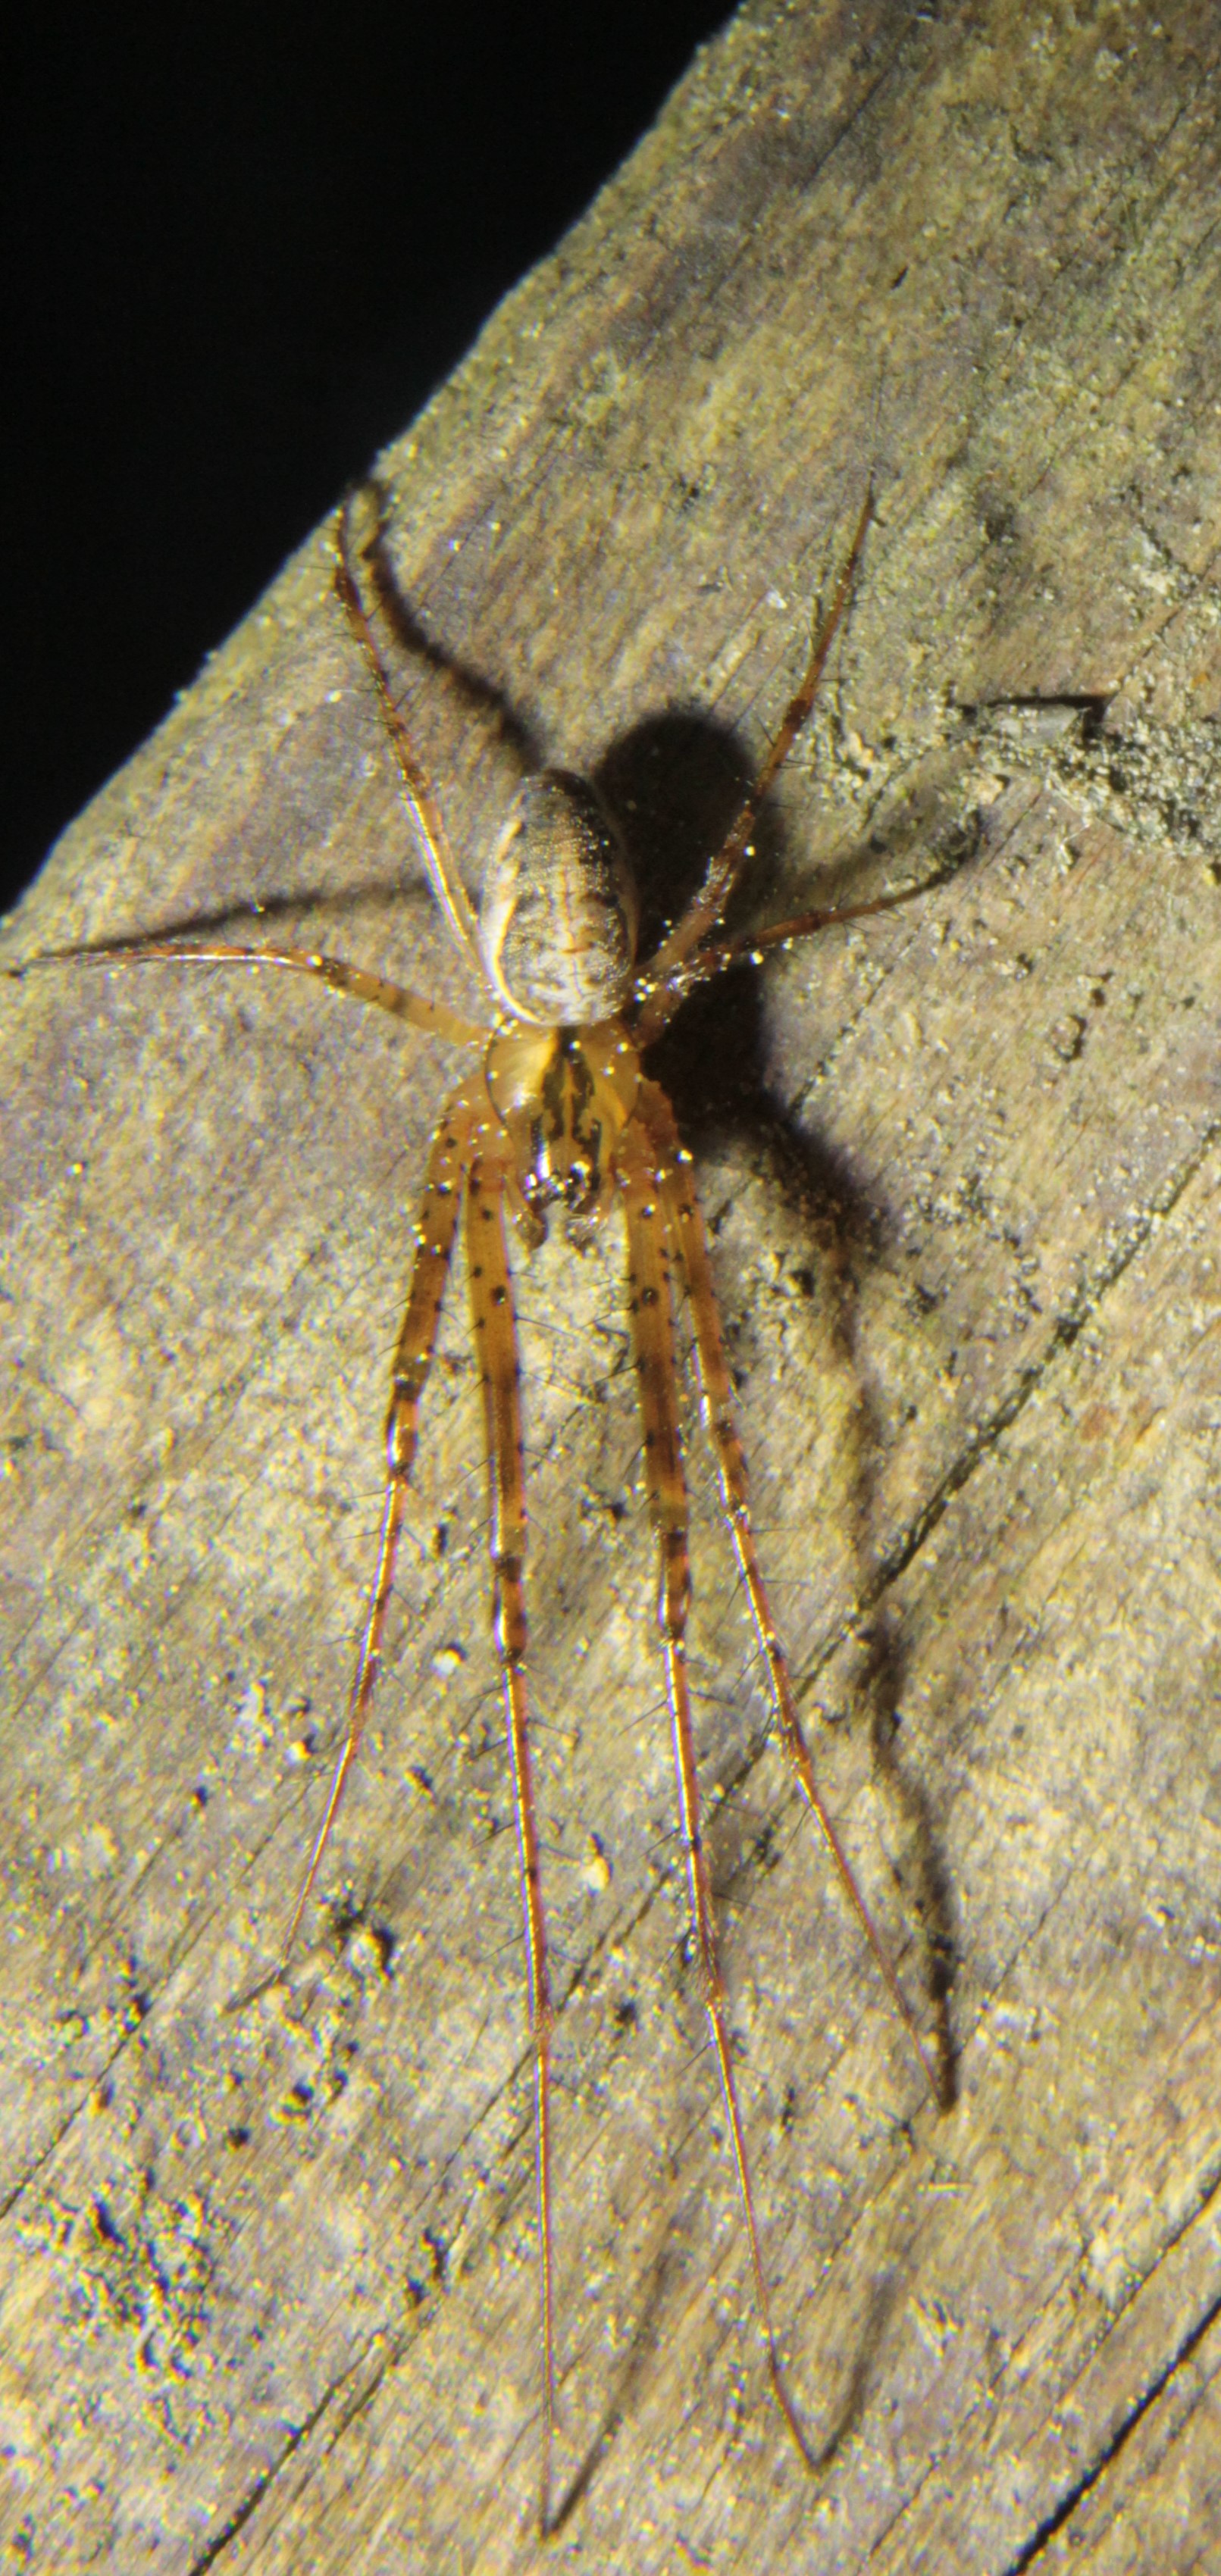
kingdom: Animalia
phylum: Arthropoda
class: Arachnida
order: Araneae
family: Tetragnathidae
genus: Metellina
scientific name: Metellina mengei
